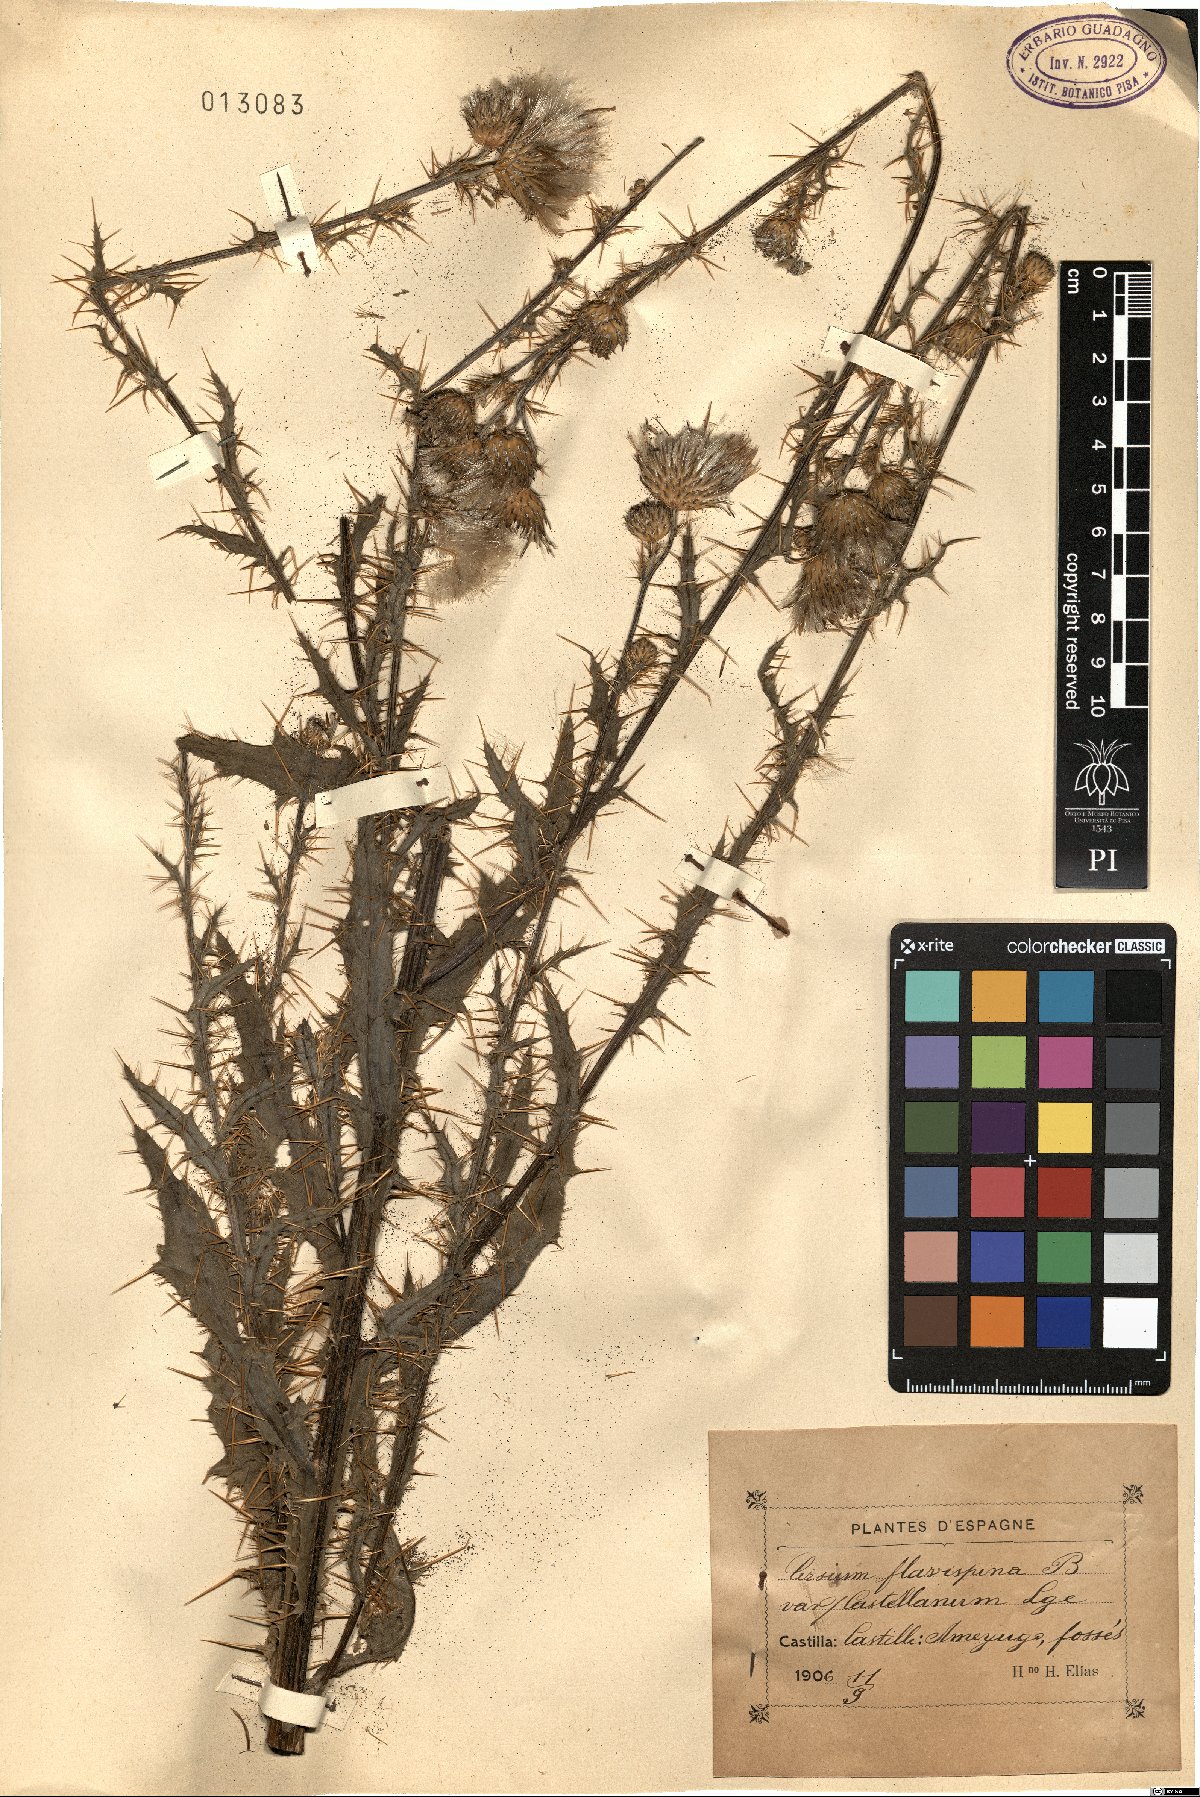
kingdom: Plantae
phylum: Tracheophyta
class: Magnoliopsida
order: Asterales
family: Asteraceae
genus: Cirsium
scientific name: Cirsium pyrenaicum
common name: Pyrenean thistle
